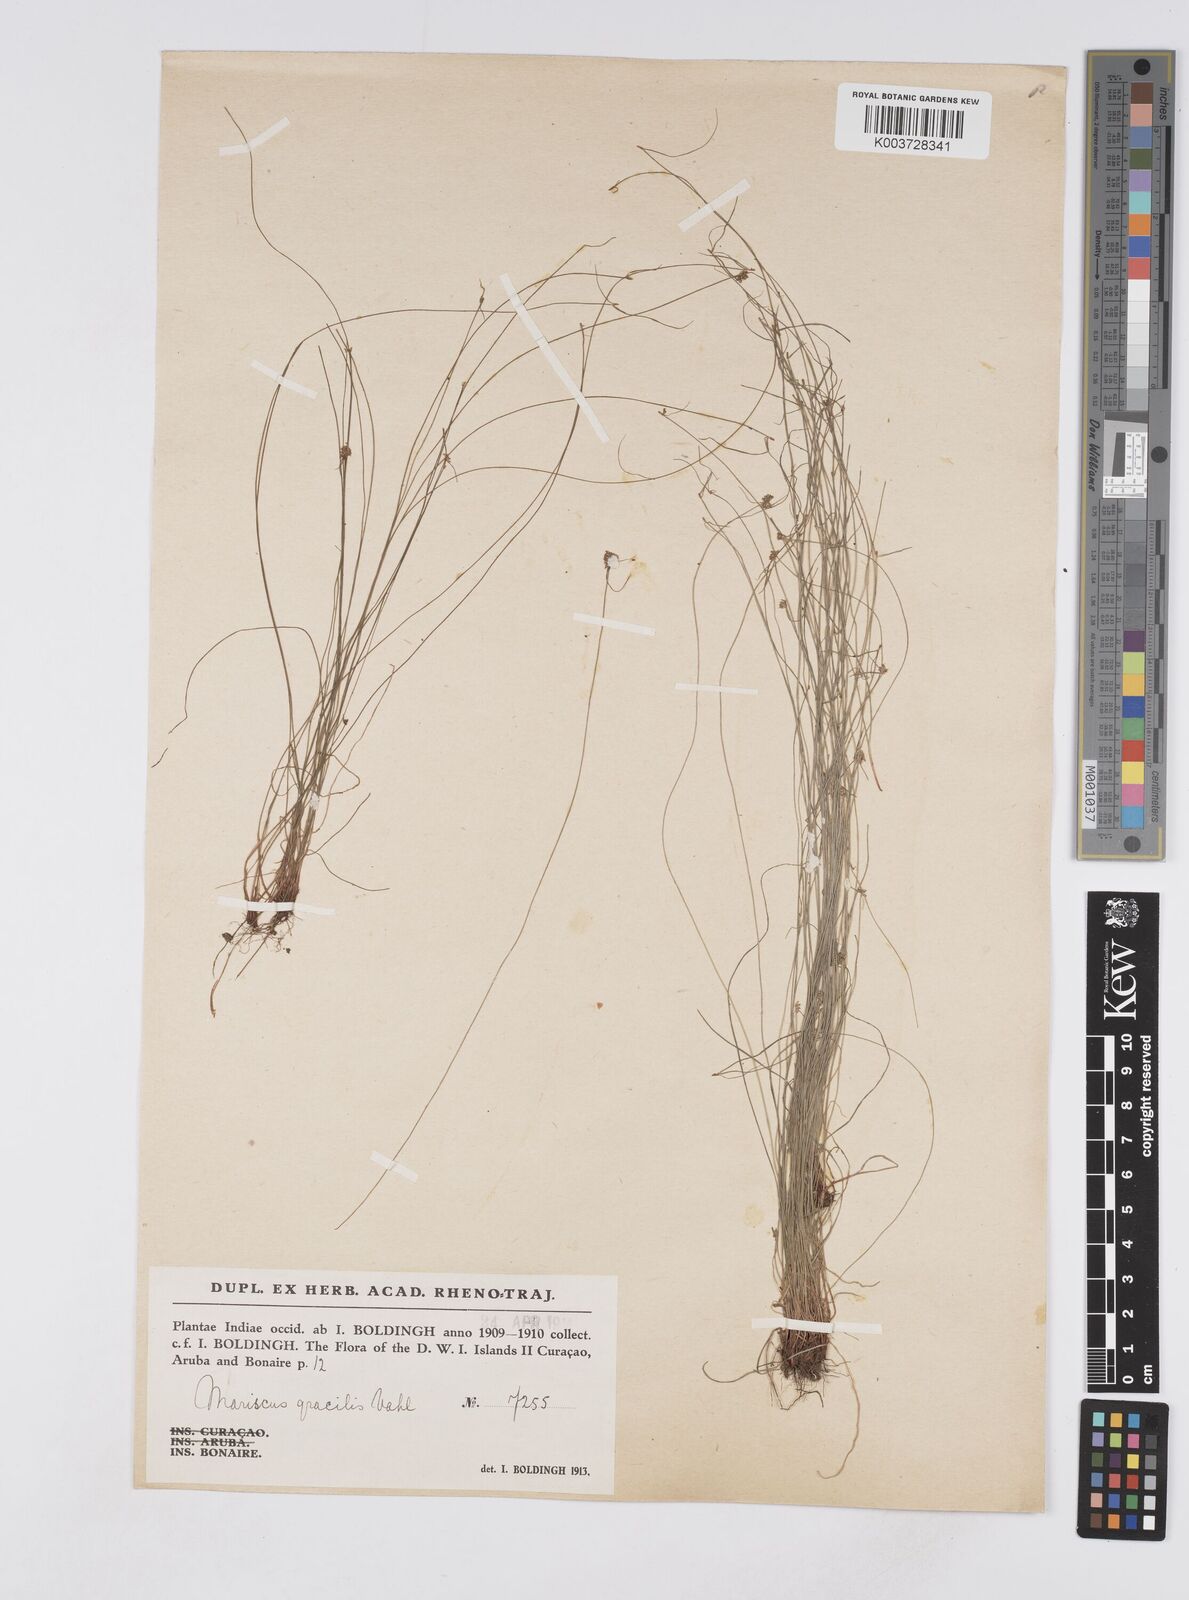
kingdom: Plantae
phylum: Tracheophyta
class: Liliopsida
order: Poales
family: Cyperaceae
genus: Cyperus
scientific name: Cyperus swartzii
